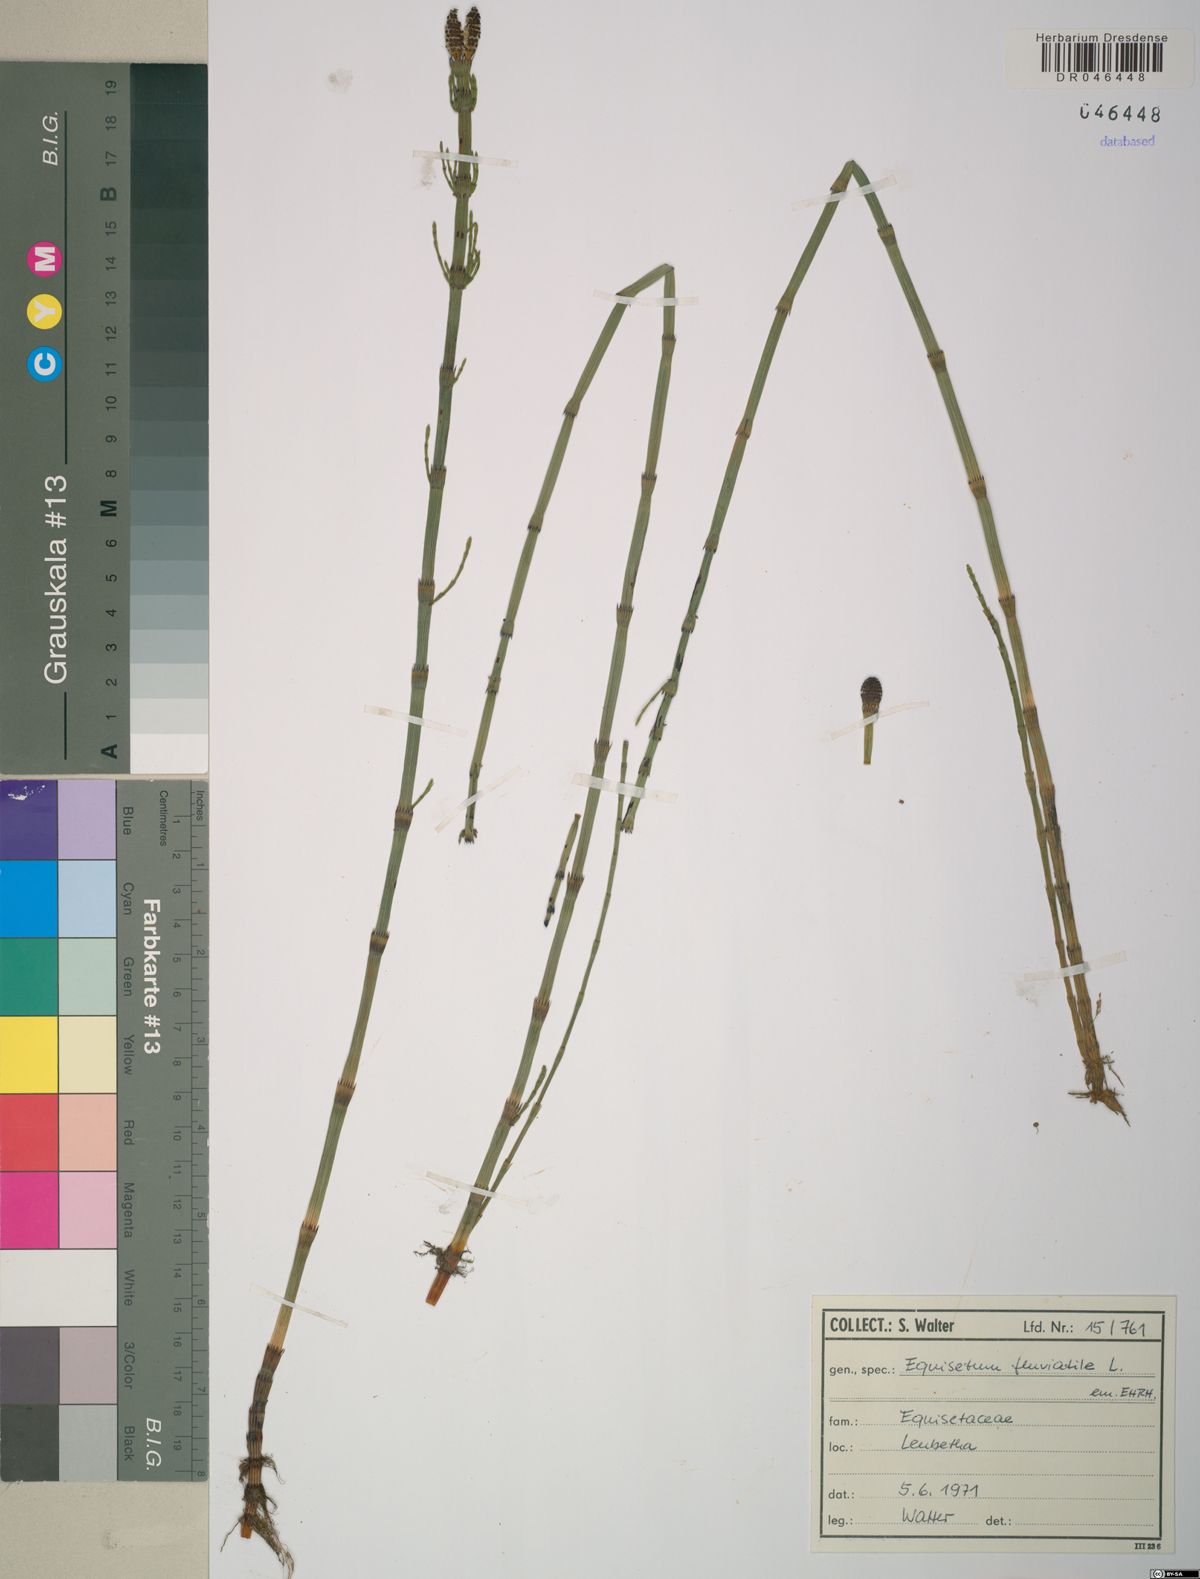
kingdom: Plantae
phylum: Tracheophyta
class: Polypodiopsida
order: Equisetales
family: Equisetaceae
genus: Equisetum
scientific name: Equisetum fluviatile
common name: Water horsetail
